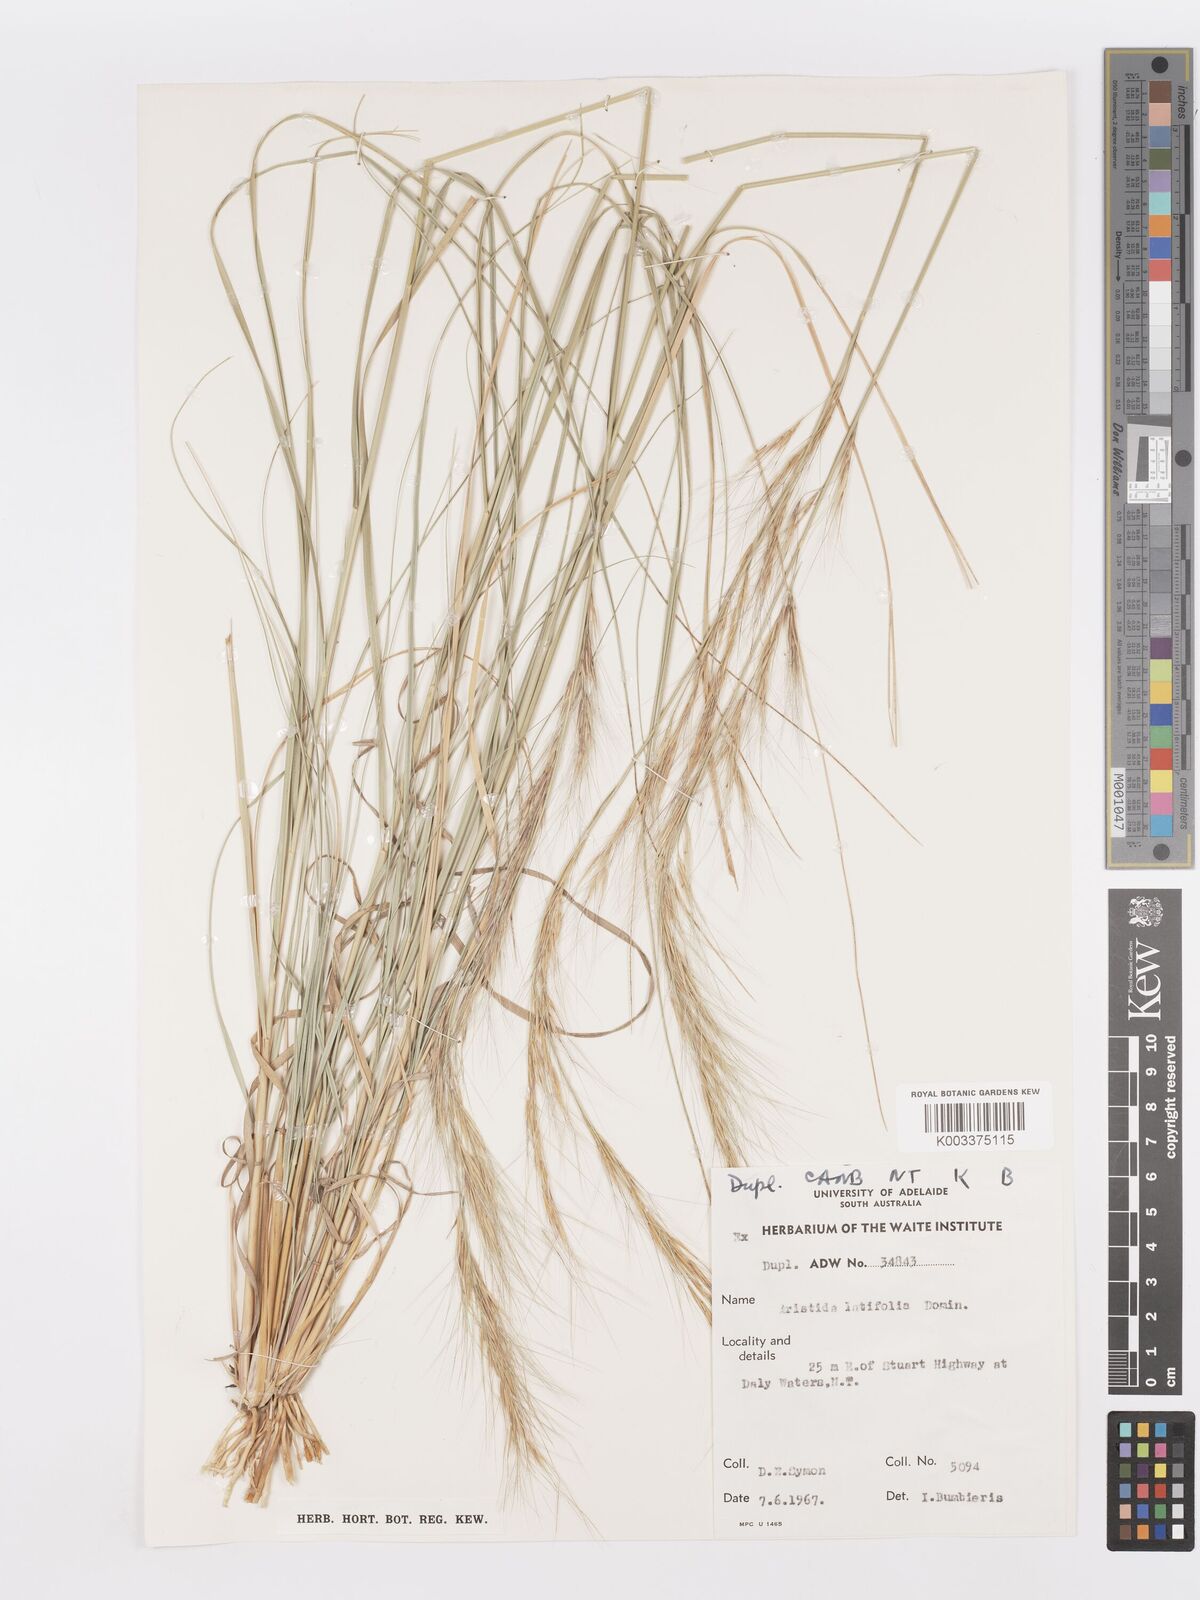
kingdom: Plantae
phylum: Tracheophyta
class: Liliopsida
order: Poales
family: Poaceae
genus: Aristida
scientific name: Aristida latifolia
